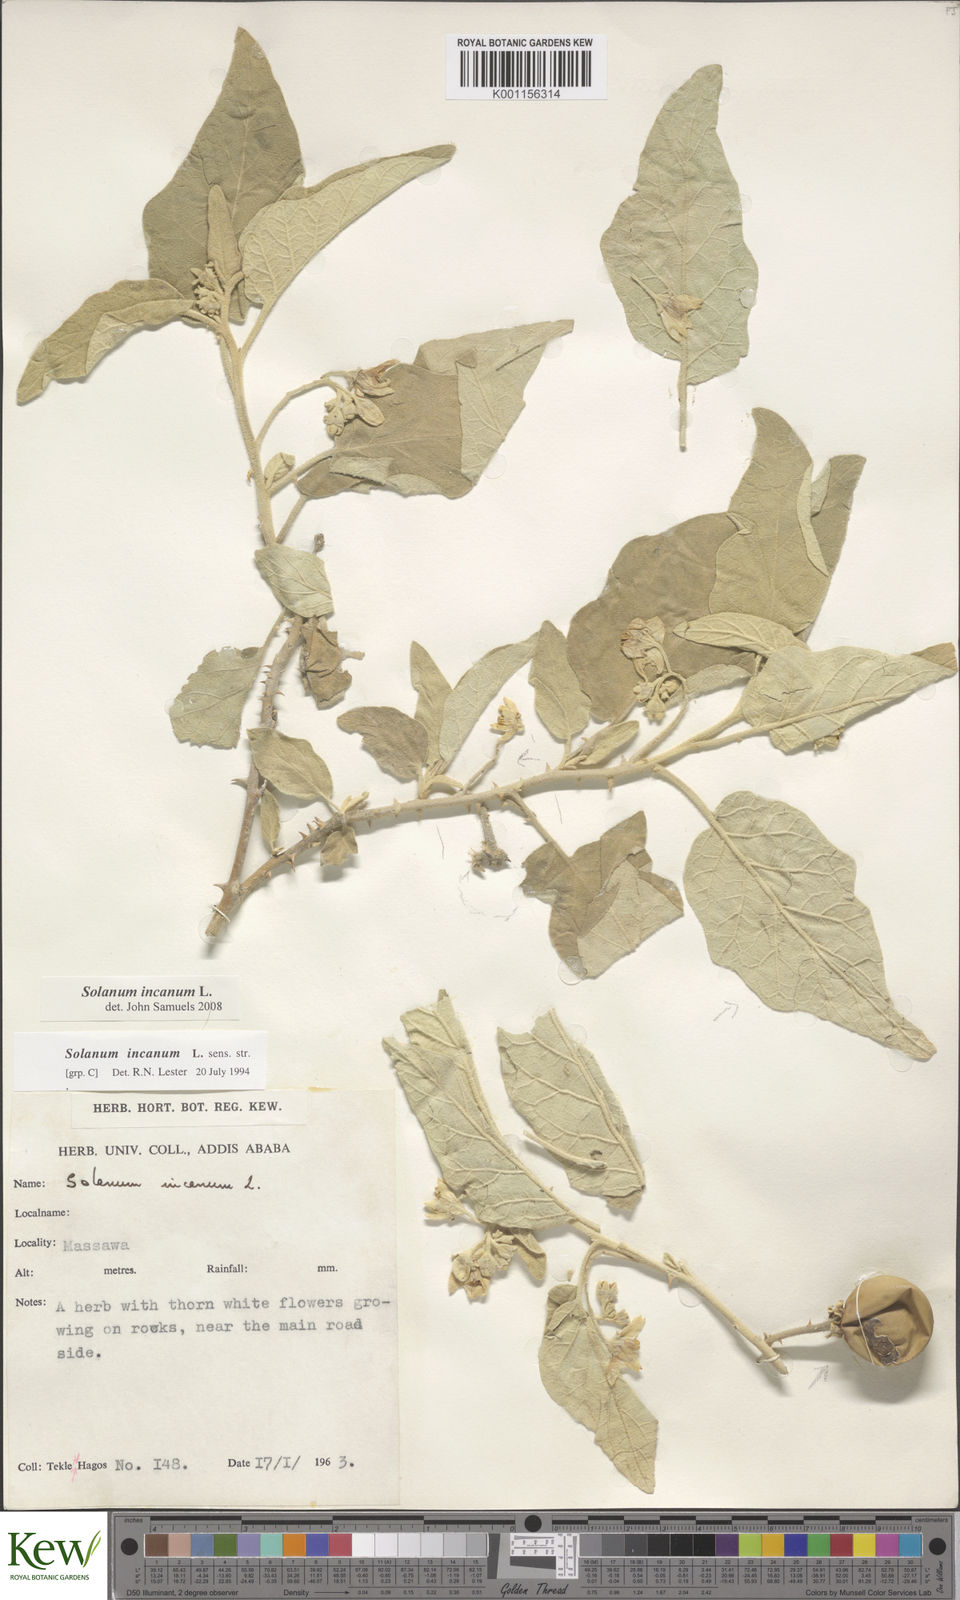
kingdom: Plantae
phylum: Tracheophyta
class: Magnoliopsida
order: Solanales
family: Solanaceae
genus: Solanum
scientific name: Solanum incanum
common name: Bitter apple
